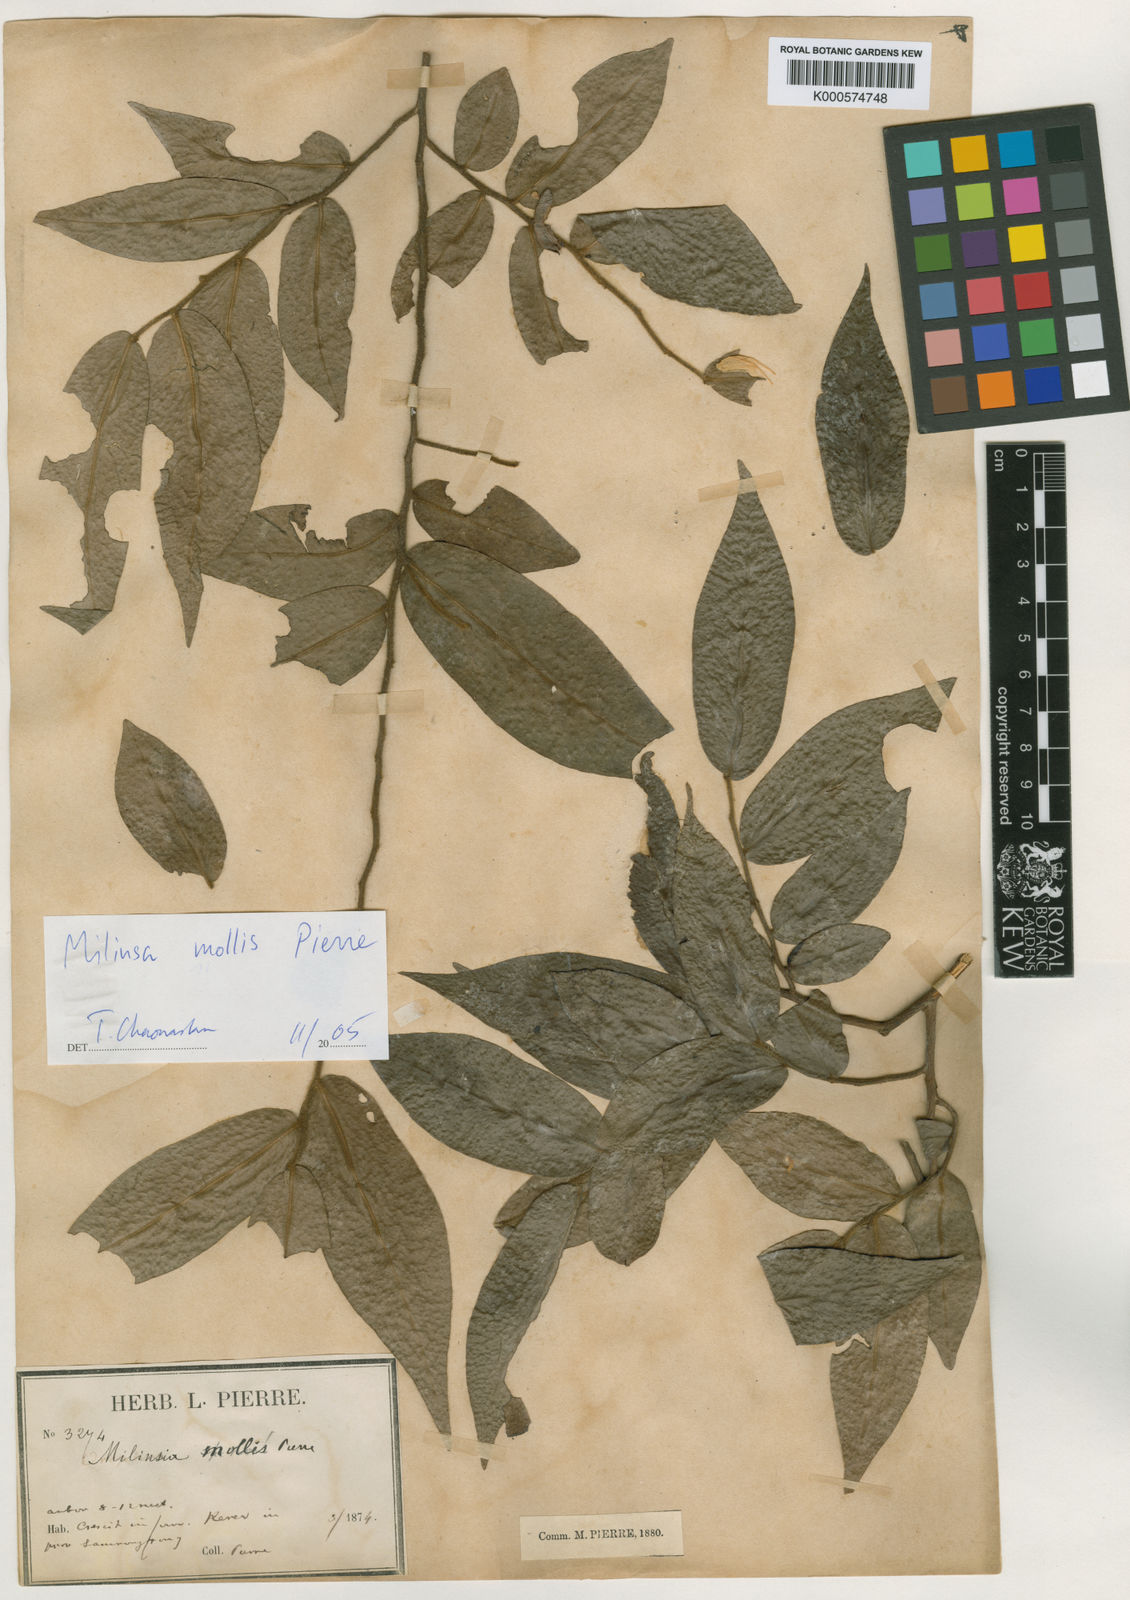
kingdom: Plantae
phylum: Tracheophyta
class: Magnoliopsida
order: Magnoliales
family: Annonaceae
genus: Miliusa
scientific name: Miliusa mollis
